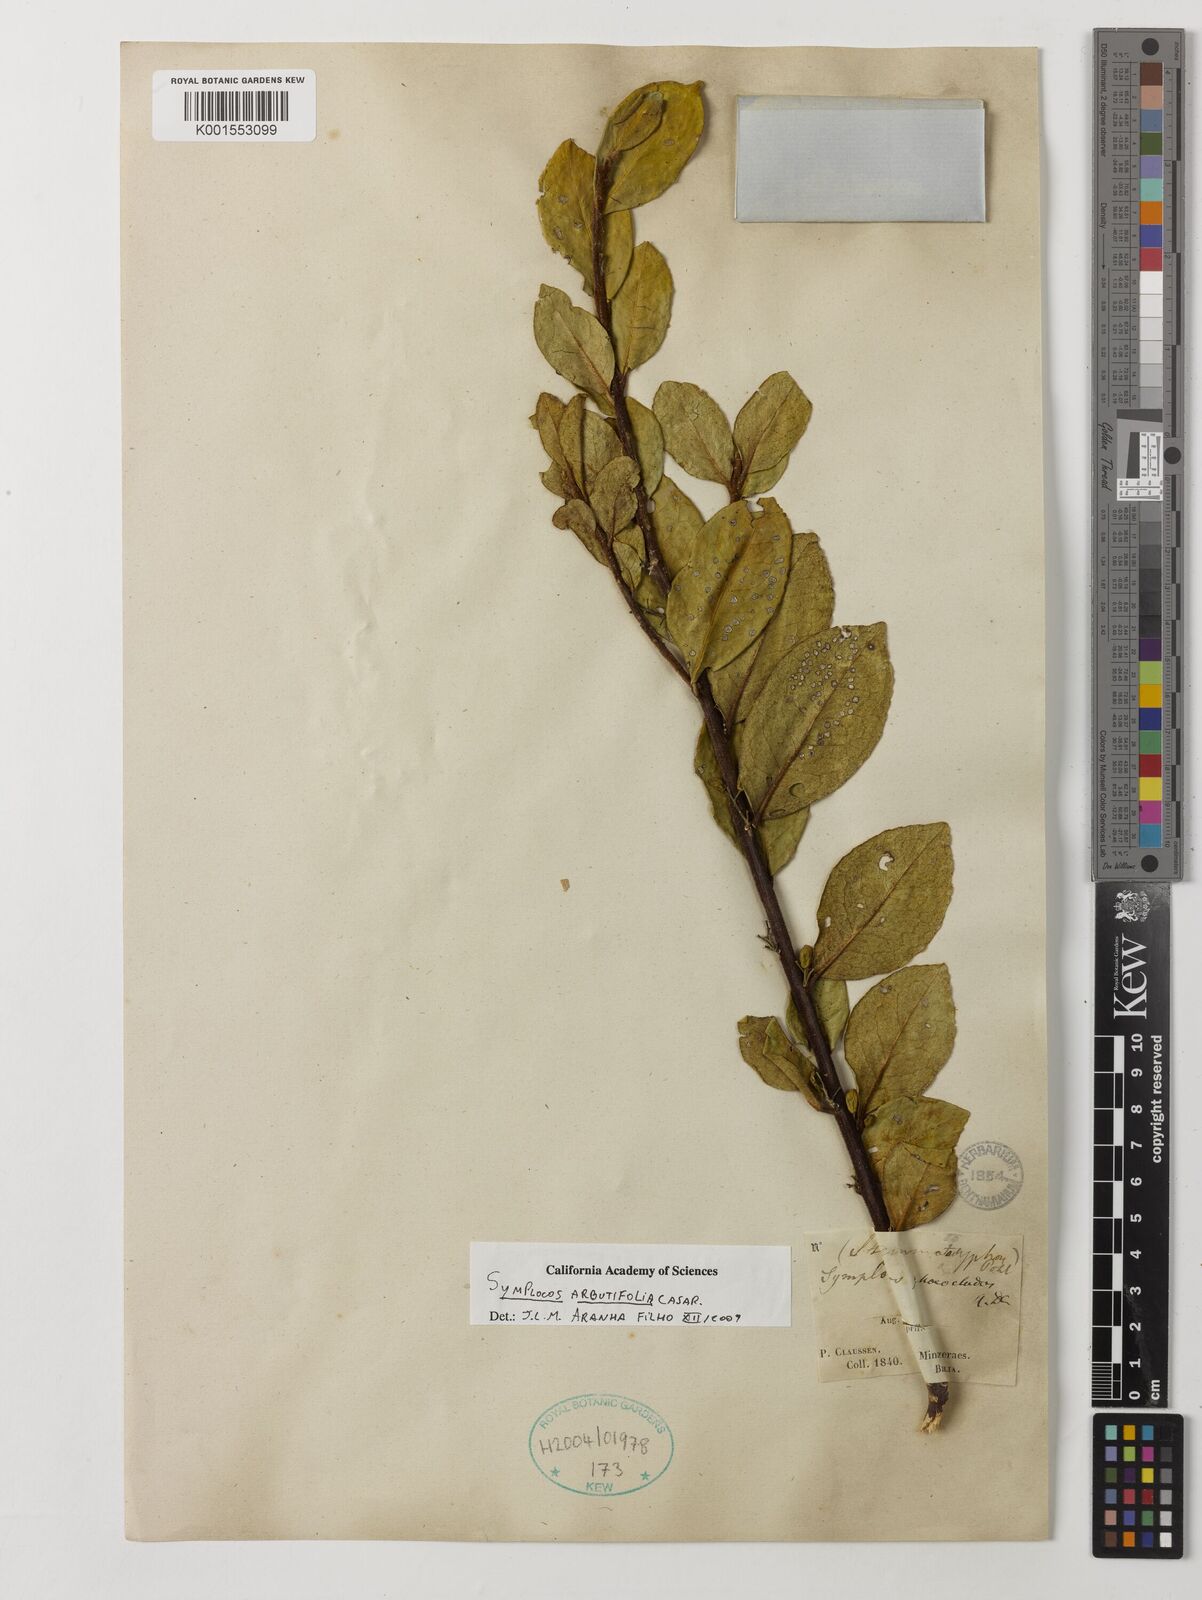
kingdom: Plantae
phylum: Tracheophyta
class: Magnoliopsida
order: Ericales
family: Symplocaceae
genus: Symplocos
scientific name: Symplocos arbutifolia
